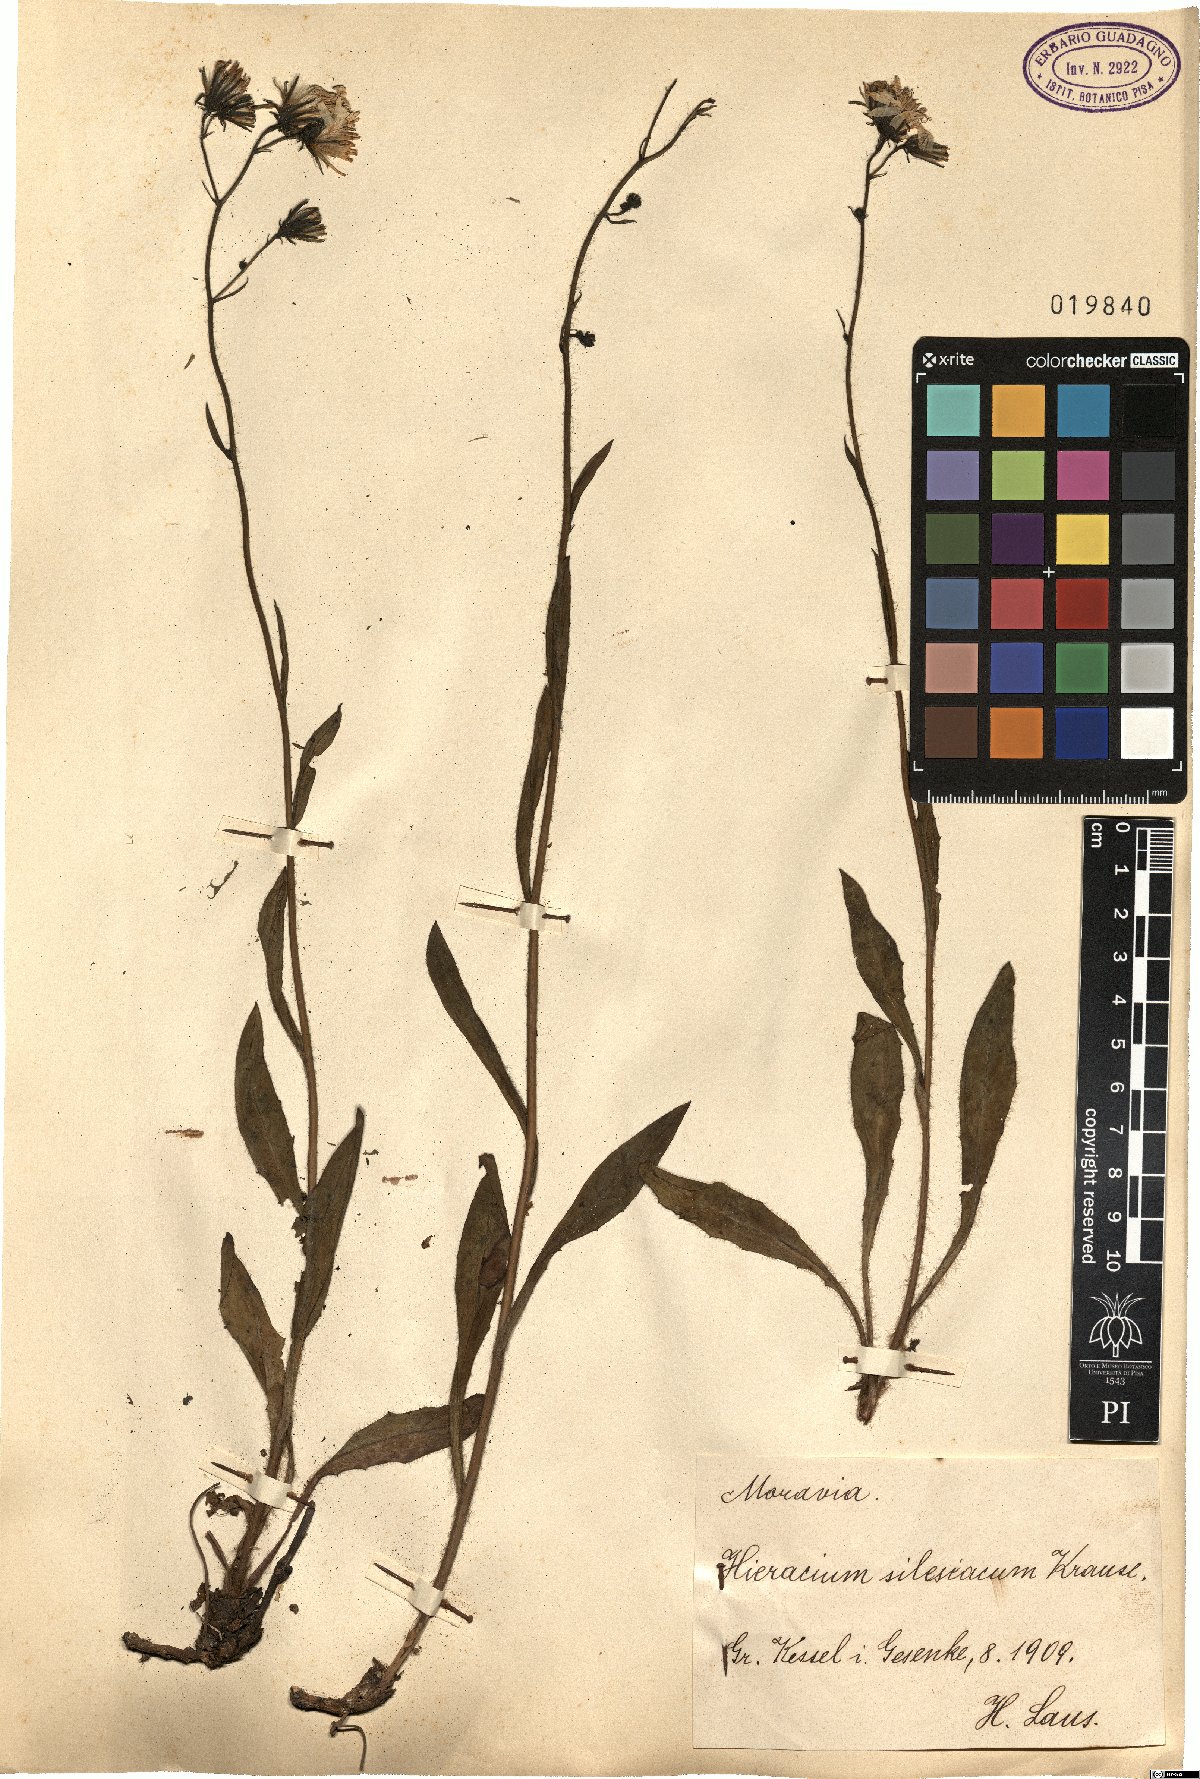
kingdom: Plantae
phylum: Tracheophyta
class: Magnoliopsida
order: Asterales
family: Asteraceae
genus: Hieracium
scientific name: Hieracium sparsum
